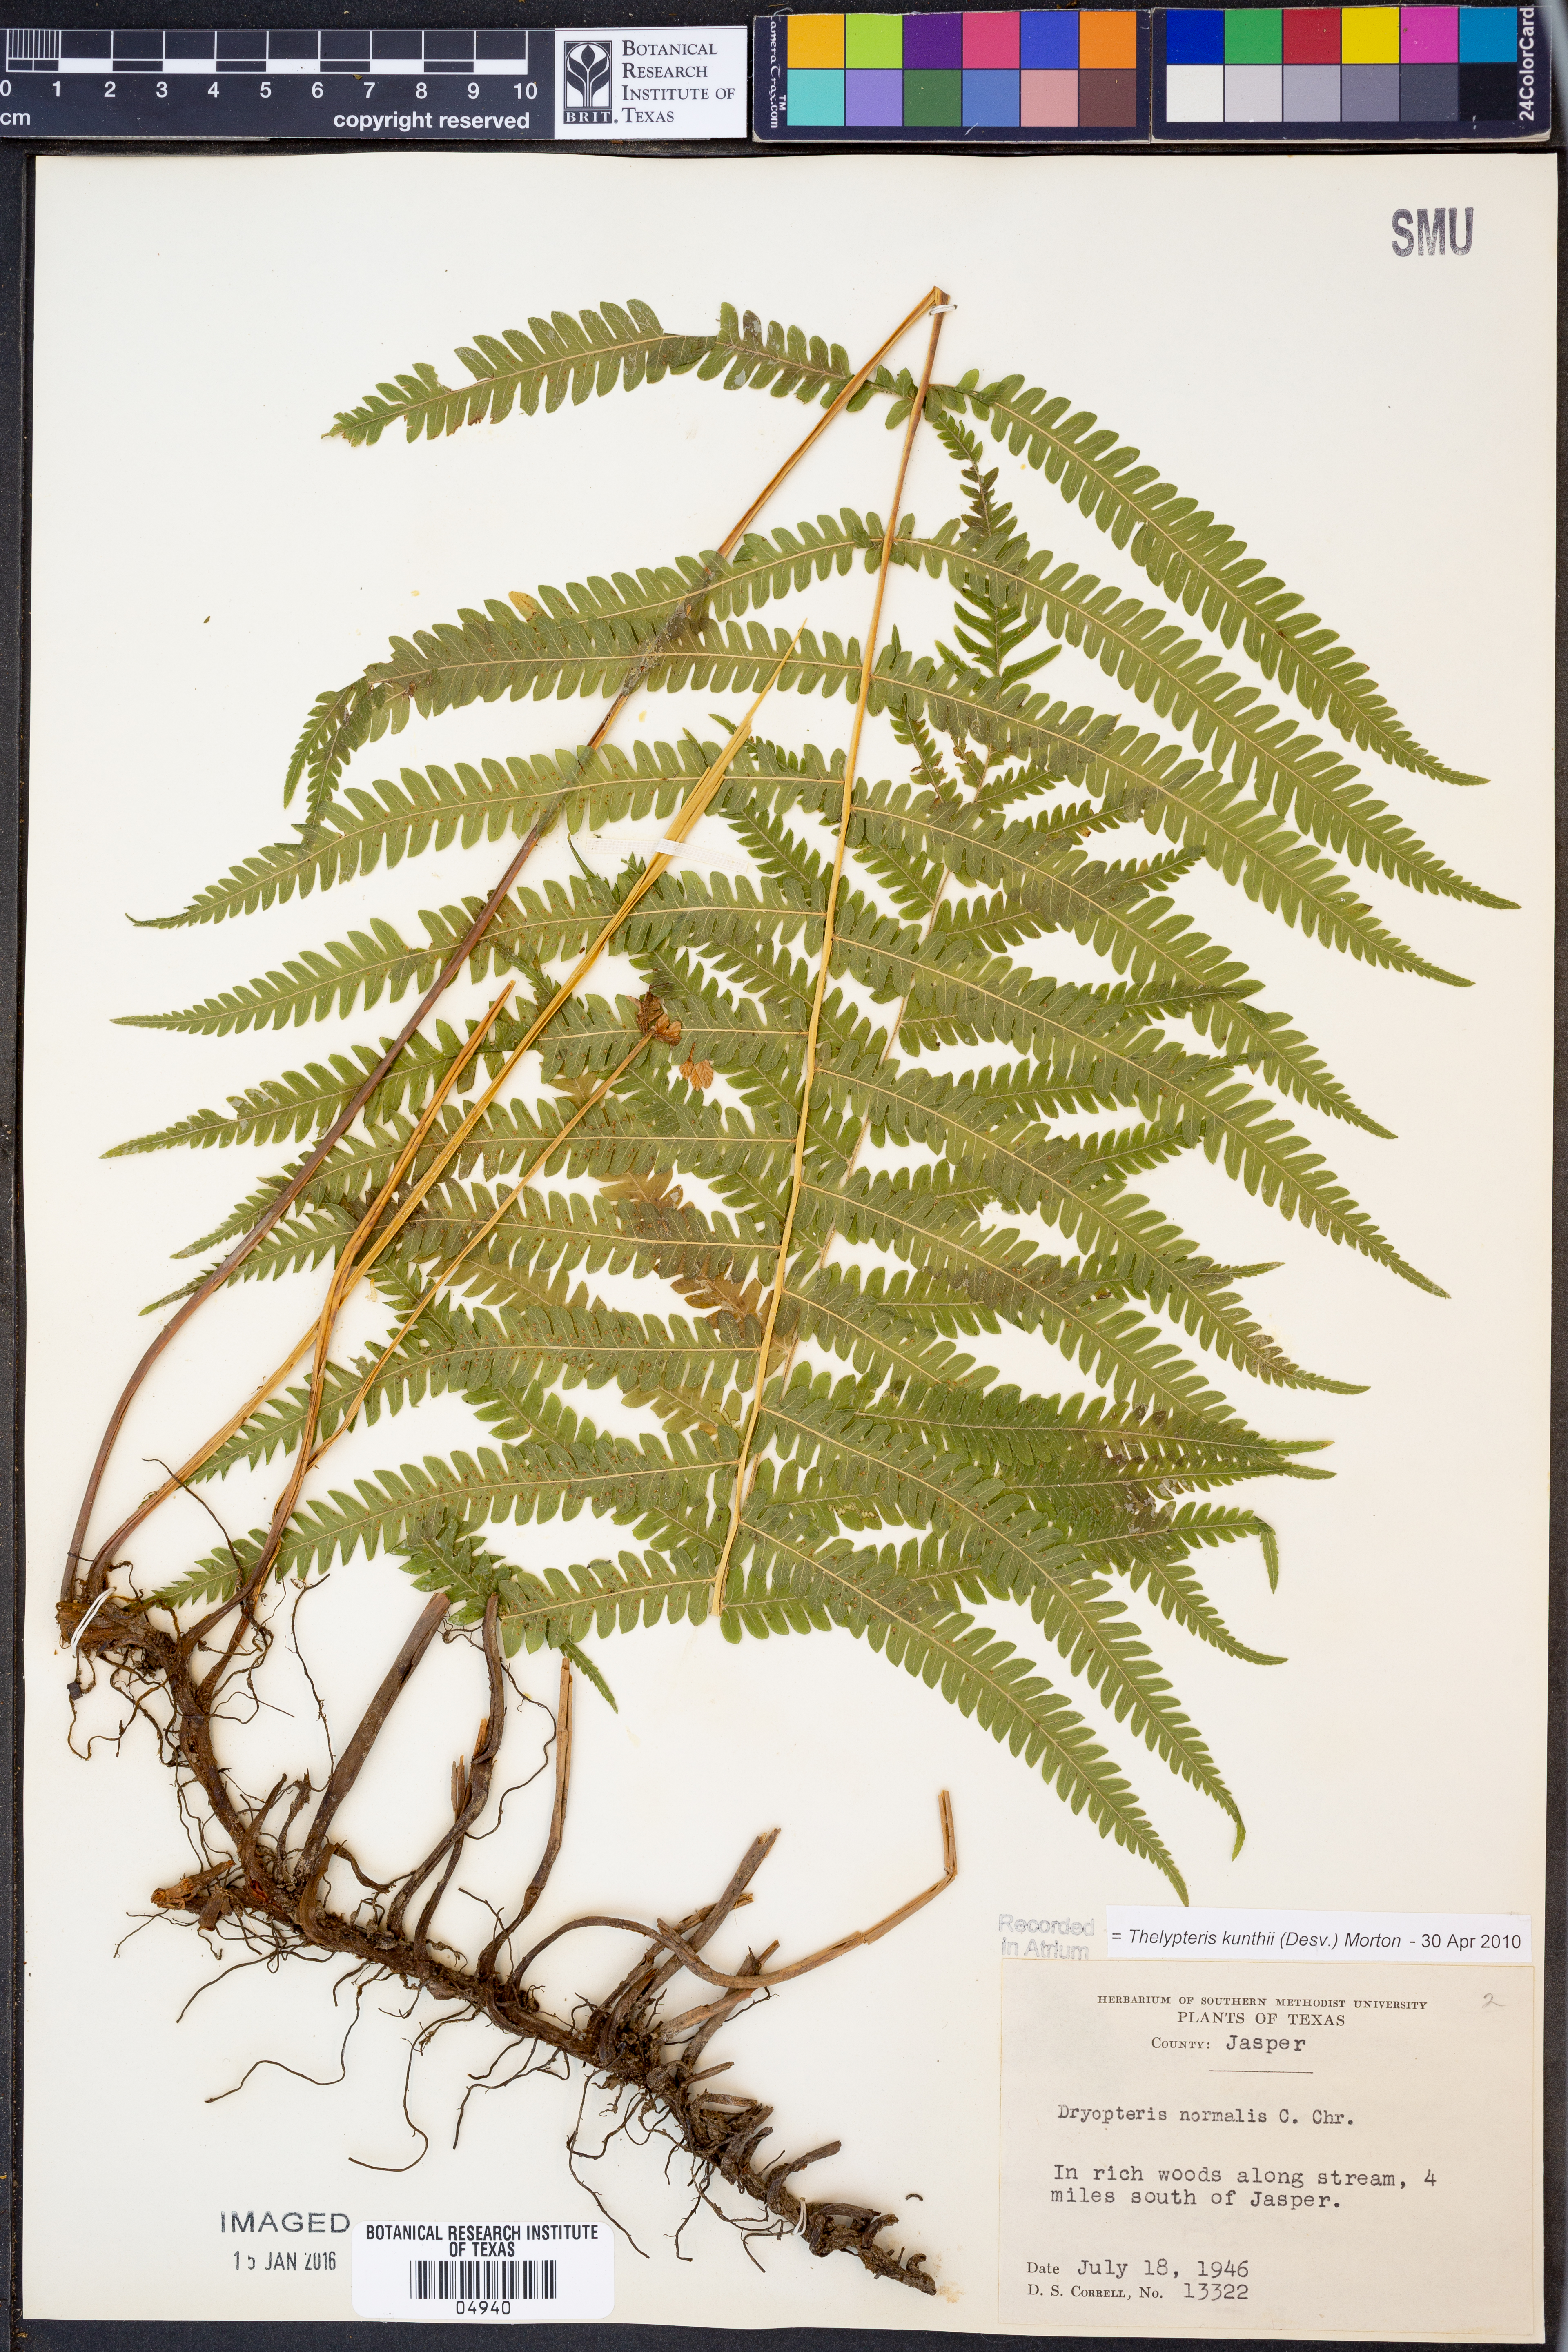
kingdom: Plantae
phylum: Tracheophyta
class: Polypodiopsida
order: Polypodiales
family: Thelypteridaceae
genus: Pelazoneuron
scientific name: Pelazoneuron kunthii
